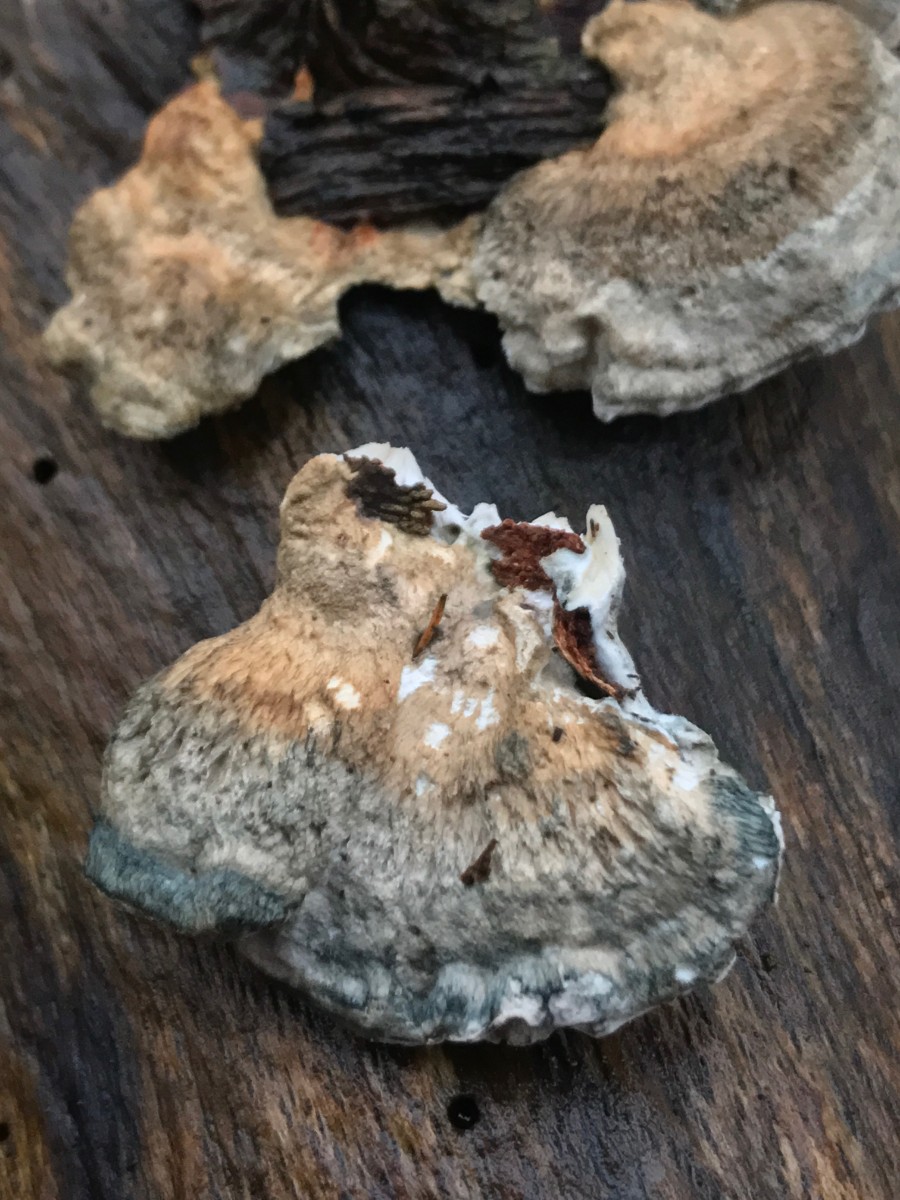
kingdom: Fungi
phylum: Basidiomycota
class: Agaricomycetes
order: Polyporales
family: Polyporaceae
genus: Cyanosporus
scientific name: Cyanosporus alni
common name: blegblå kødporesvamp
